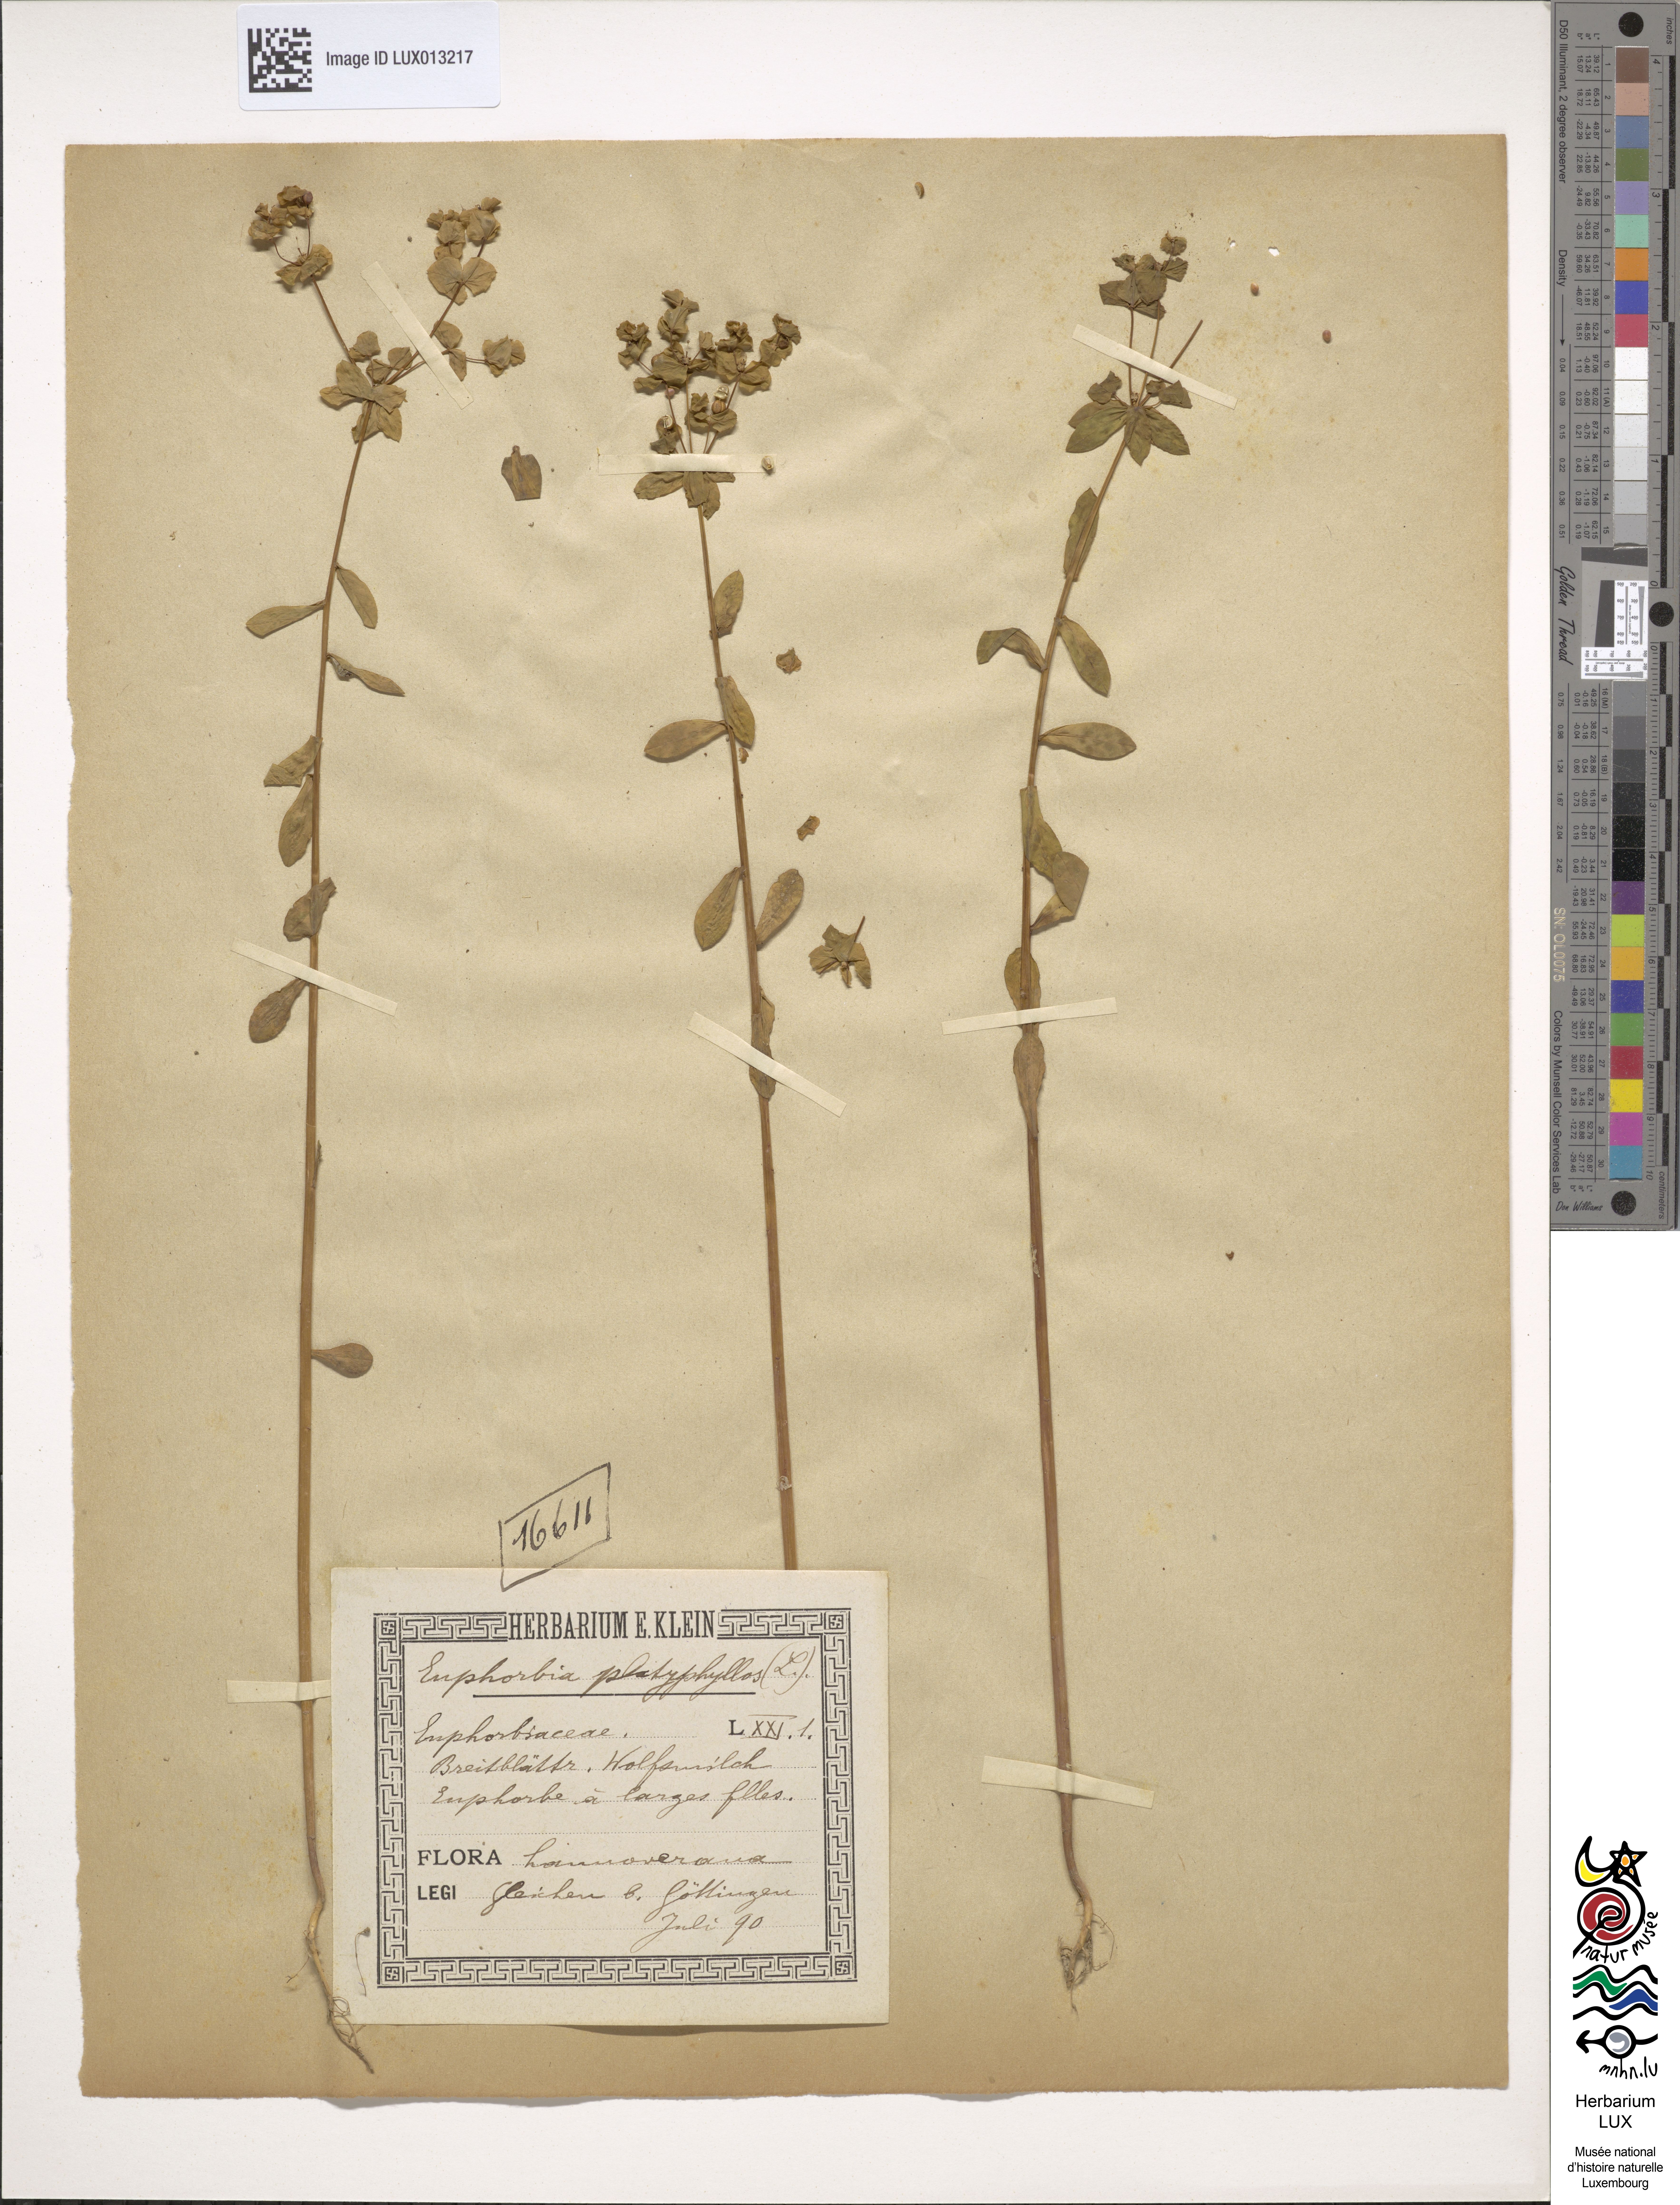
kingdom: Plantae
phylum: Tracheophyta
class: Magnoliopsida
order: Malpighiales
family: Euphorbiaceae
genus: Euphorbia
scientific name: Euphorbia platyphyllos
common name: Broad-leaved spurge
